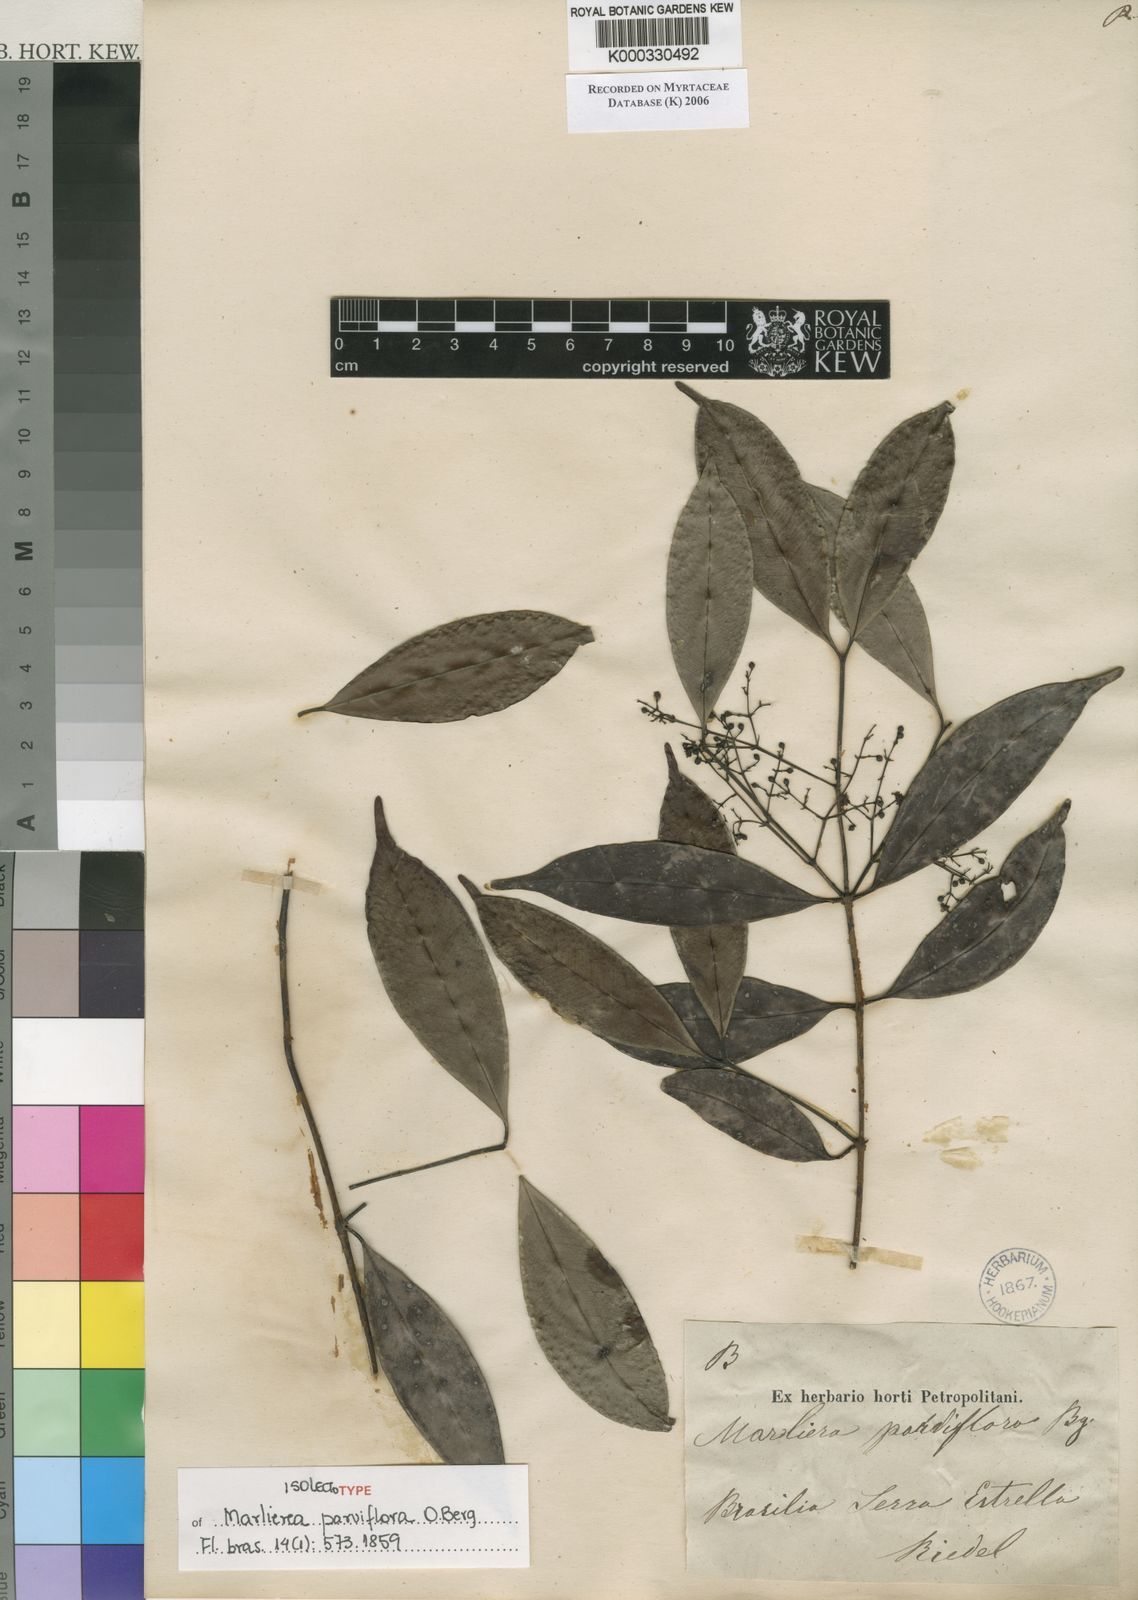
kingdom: Plantae
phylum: Tracheophyta
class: Magnoliopsida
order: Myrtales
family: Myrtaceae
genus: Marlierea
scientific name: Marlierea
